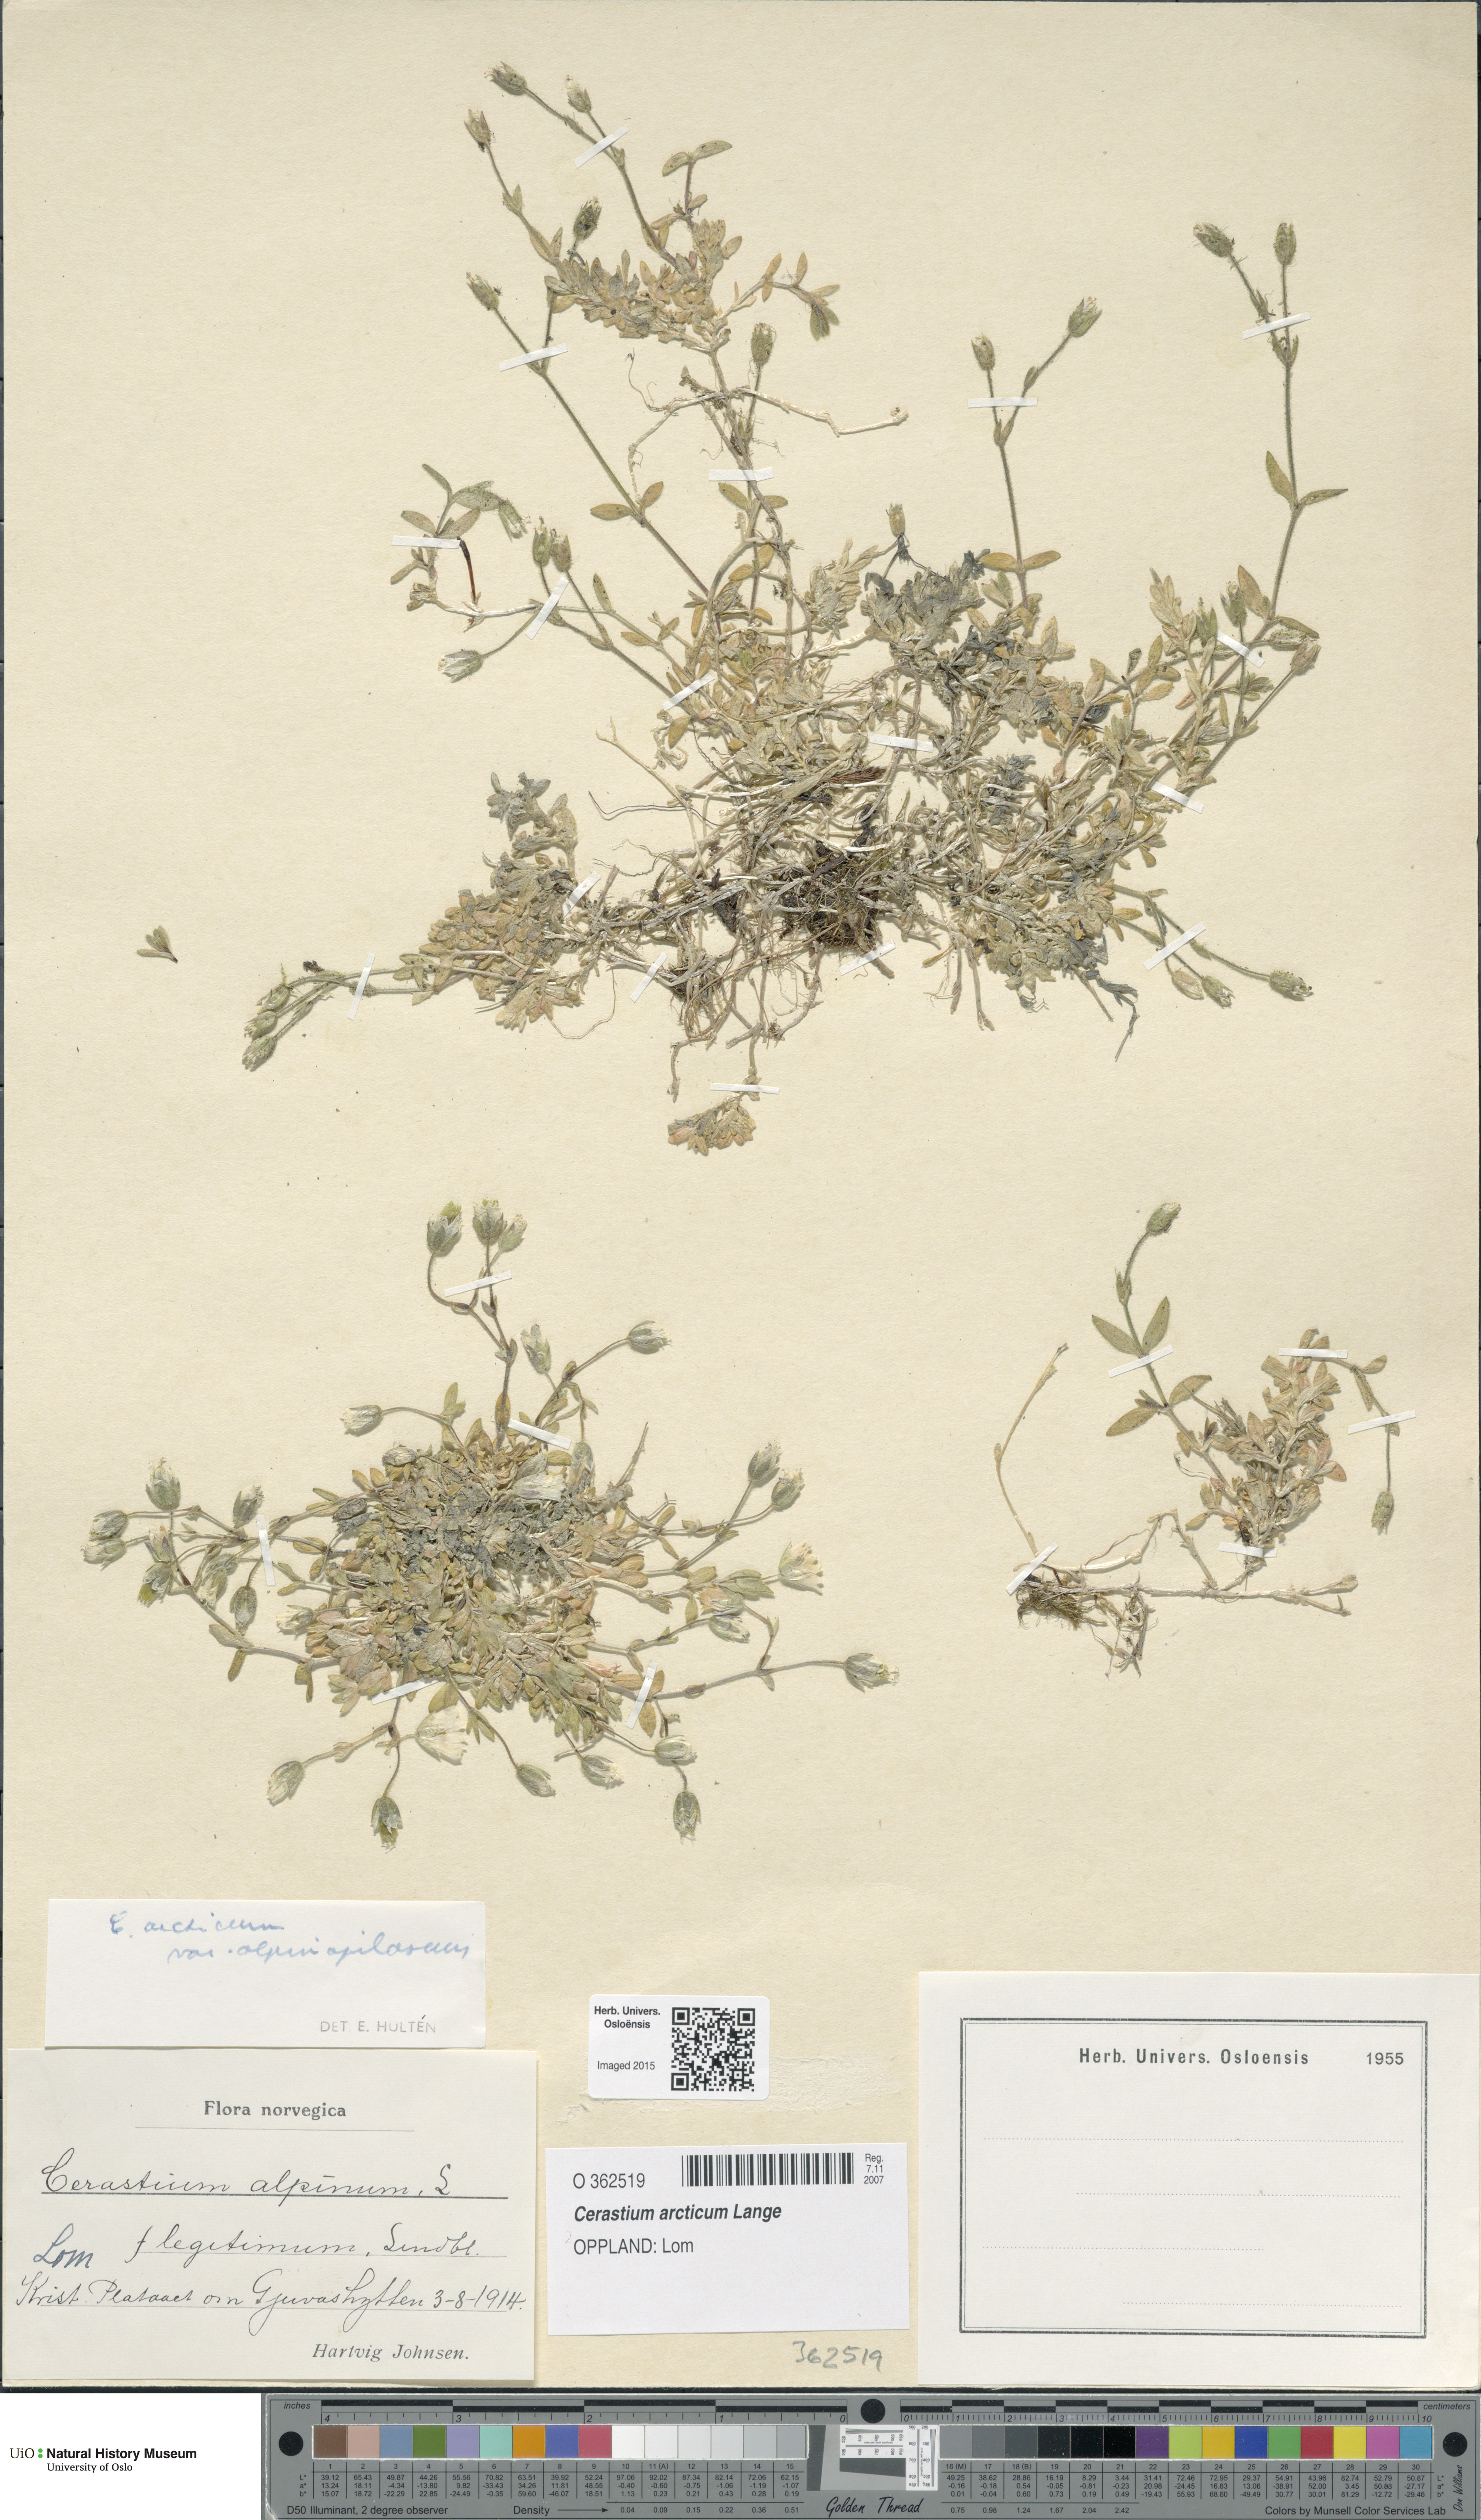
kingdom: Plantae
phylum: Tracheophyta
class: Magnoliopsida
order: Caryophyllales
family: Caryophyllaceae
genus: Cerastium
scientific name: Cerastium arcticum
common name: Arctic mouse-ear
